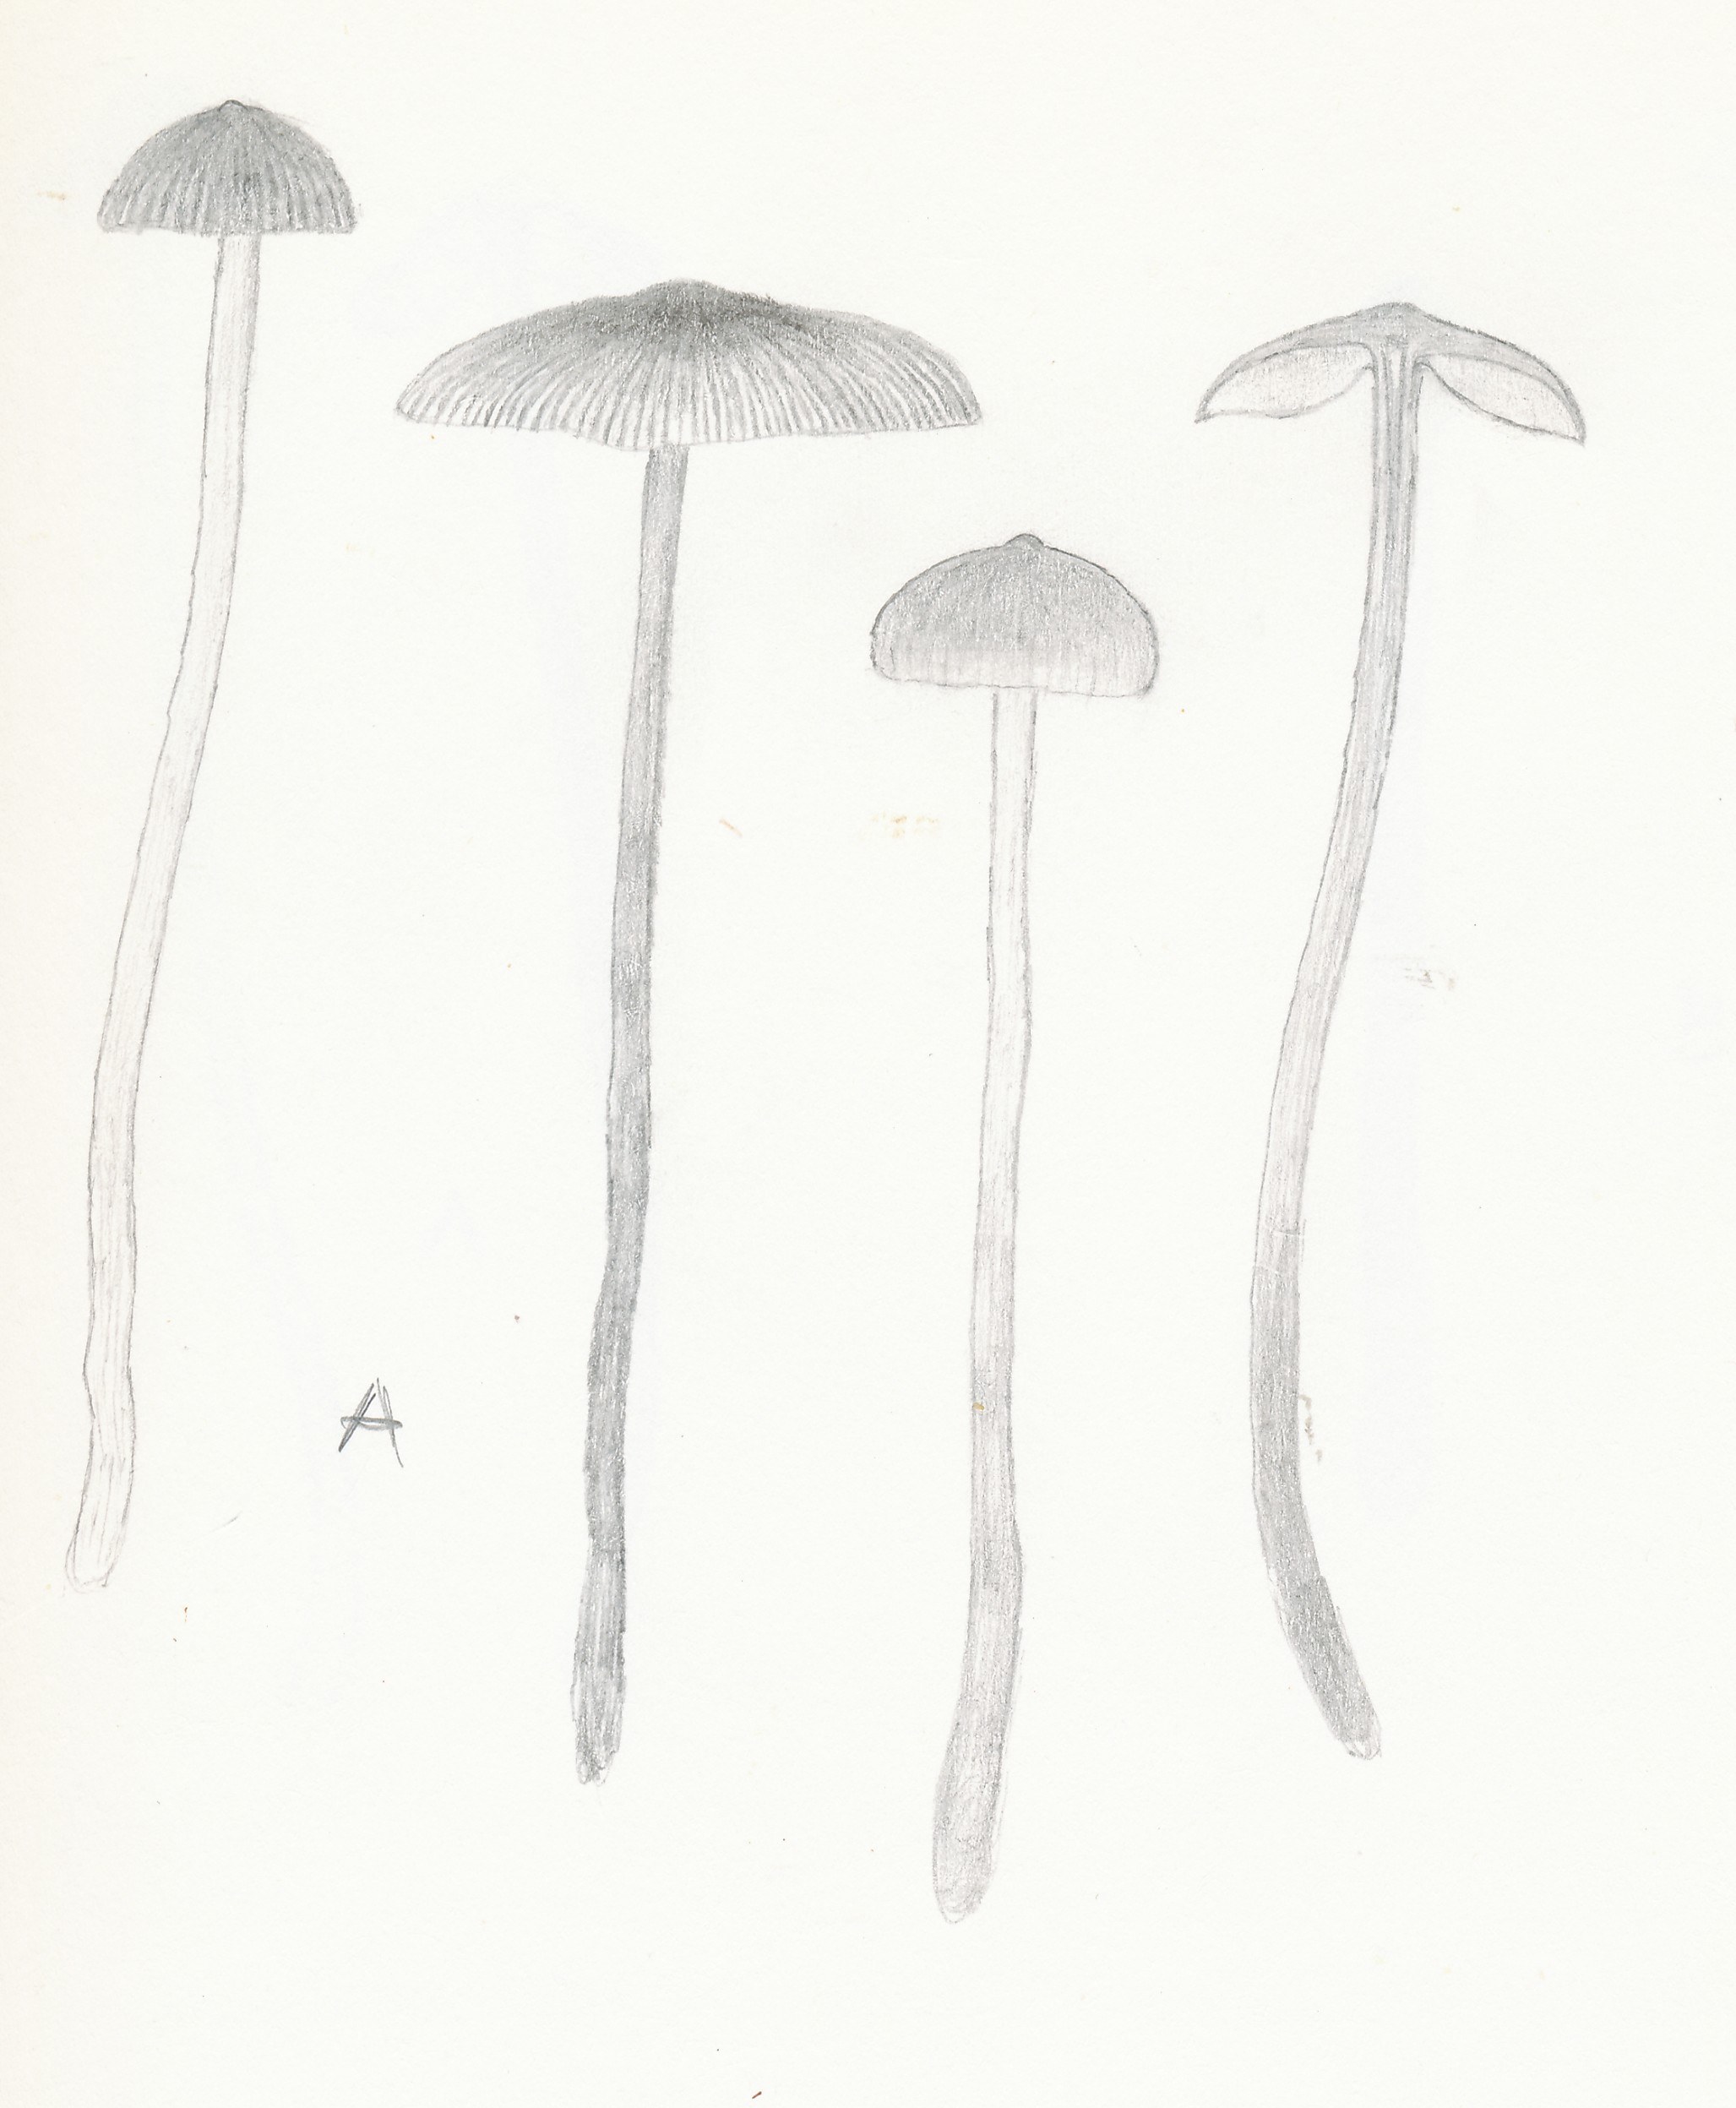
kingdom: Fungi
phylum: Basidiomycota
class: Agaricomycetes
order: Agaricales
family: Lyophyllaceae
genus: Sphagnurus
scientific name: Sphagnurus paluster
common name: tørvemos-gråblad
